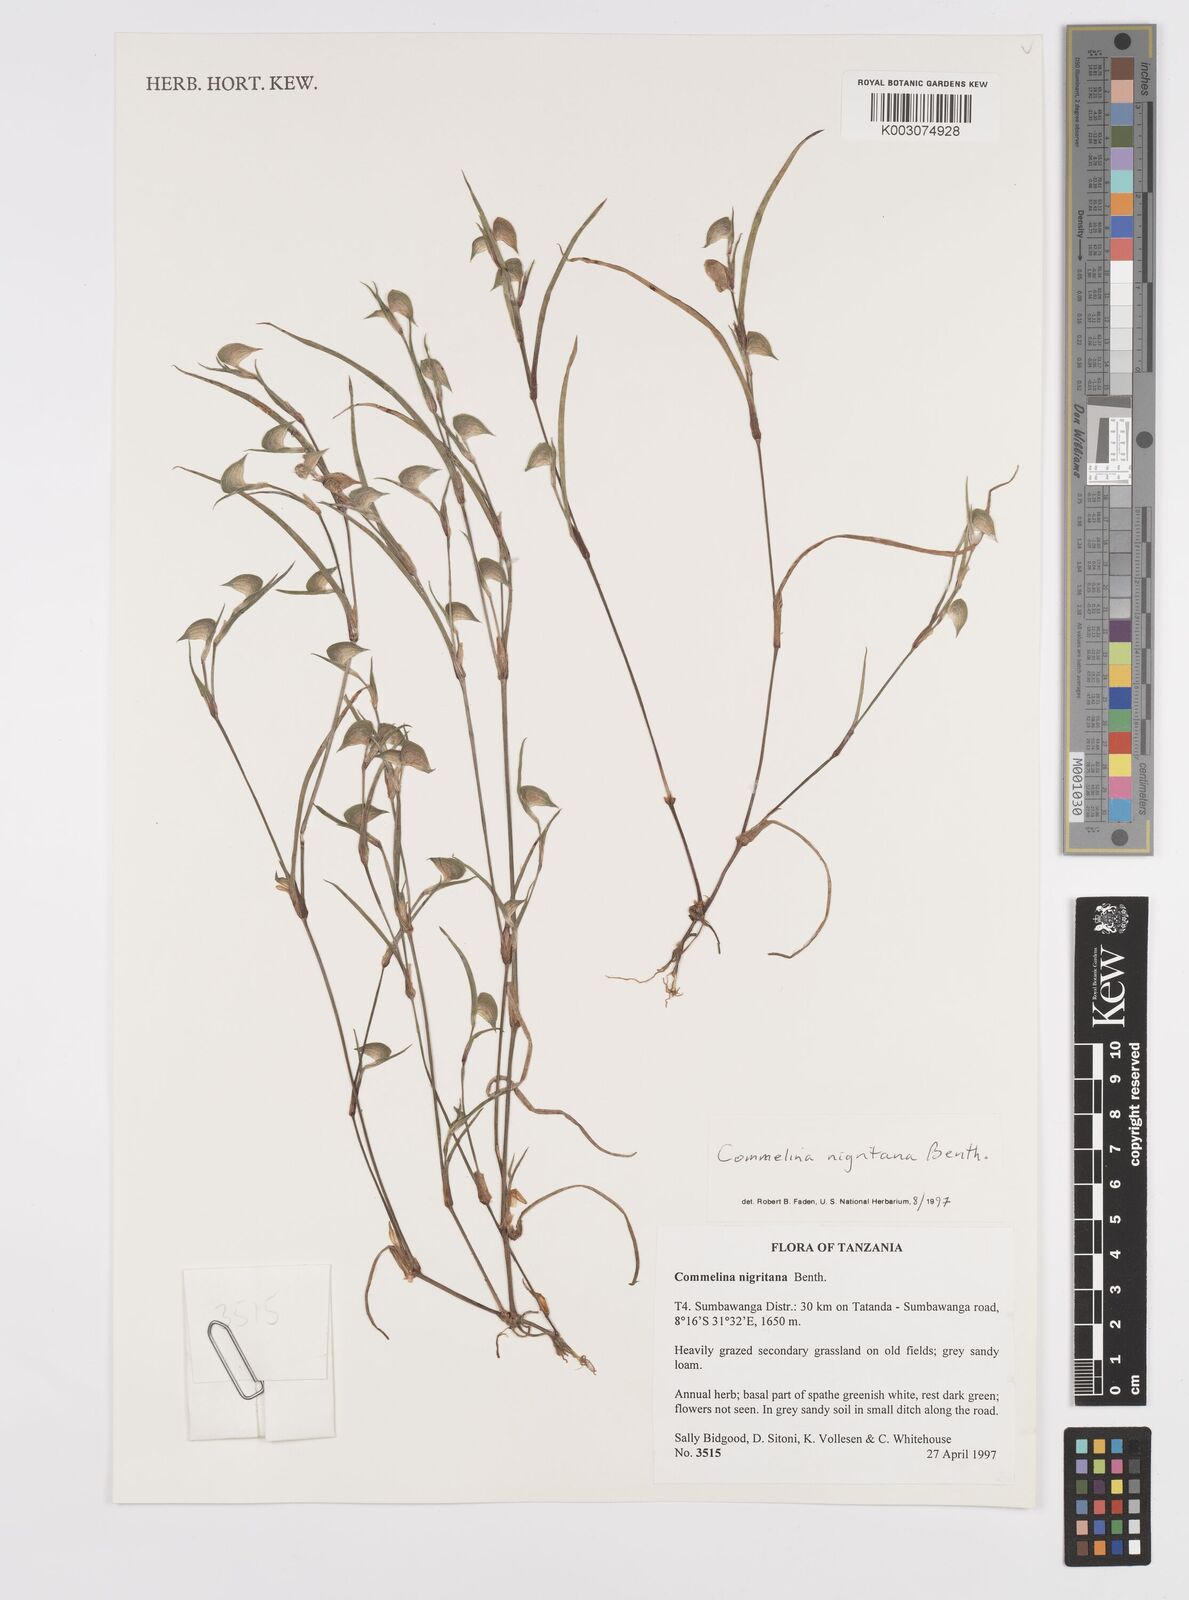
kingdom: Plantae
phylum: Tracheophyta
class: Liliopsida
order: Commelinales
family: Commelinaceae
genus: Commelina
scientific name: Commelina nigritana
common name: African dayflower
